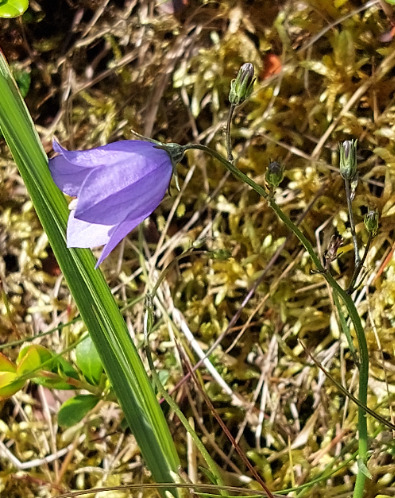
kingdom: Plantae
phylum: Tracheophyta
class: Magnoliopsida
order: Asterales
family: Campanulaceae
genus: Campanula
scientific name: Campanula rotundifolia
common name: Liden klokke
